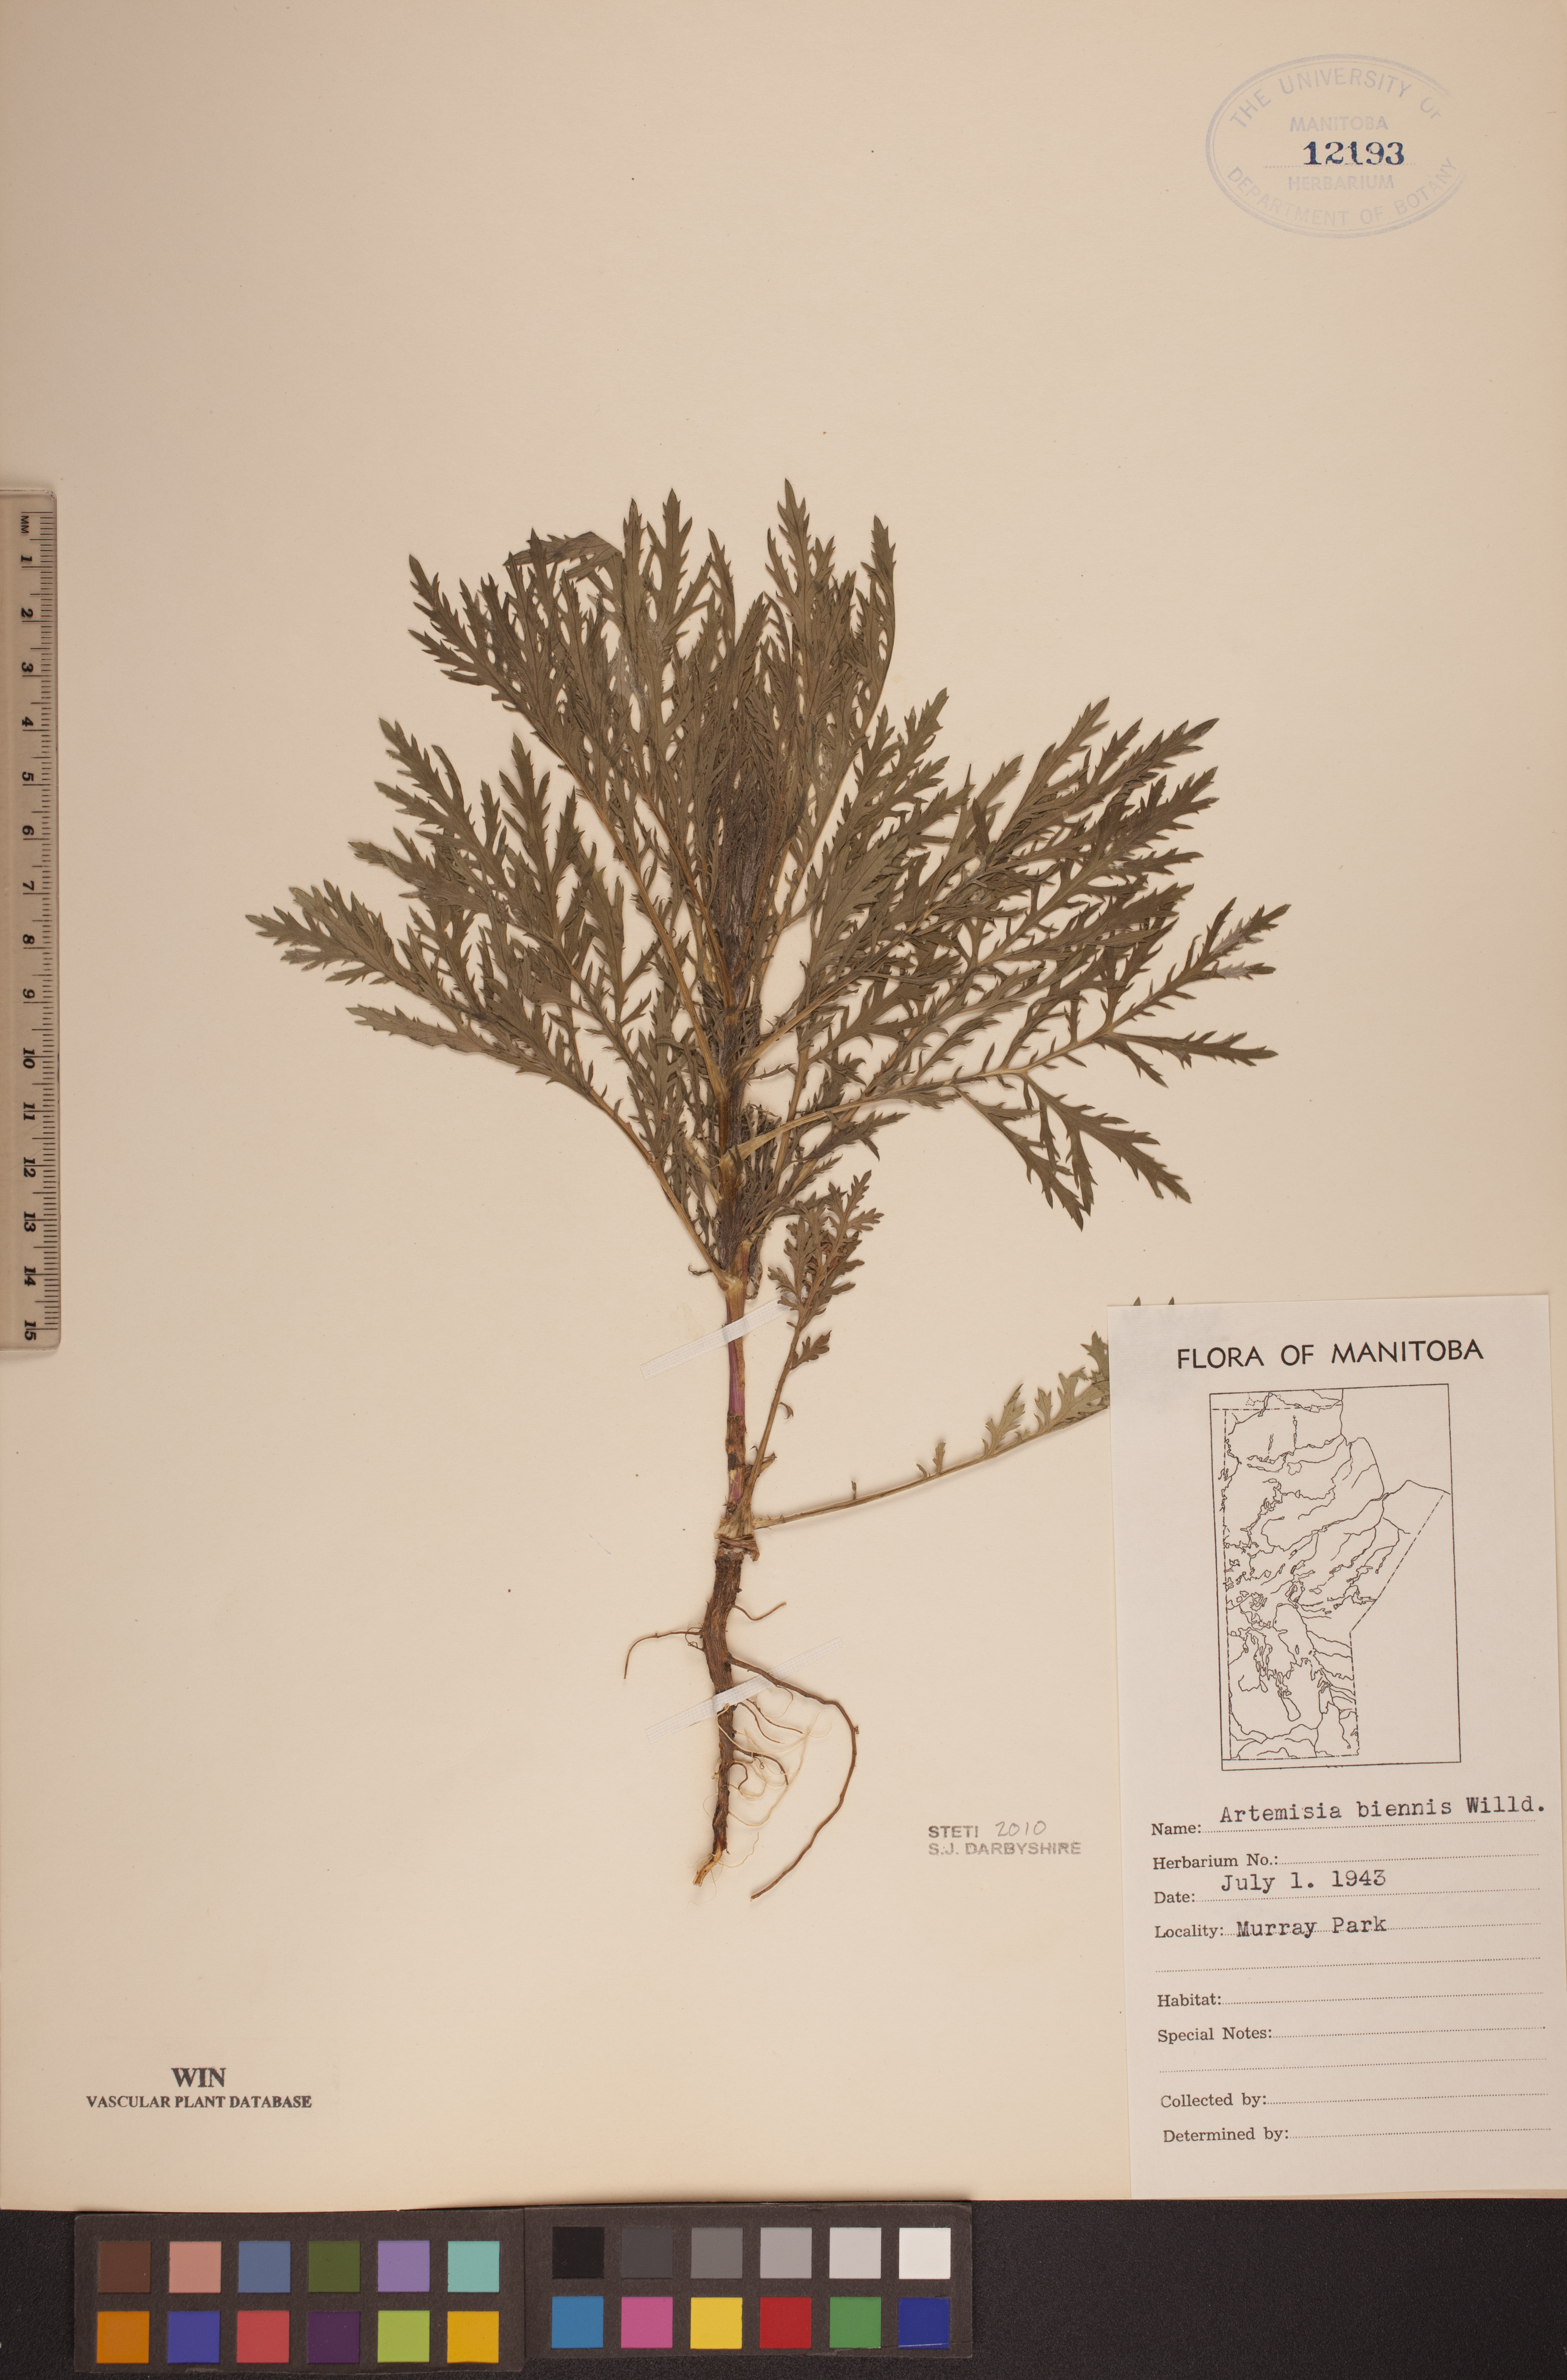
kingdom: Plantae
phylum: Tracheophyta
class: Magnoliopsida
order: Asterales
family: Asteraceae
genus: Artemisia
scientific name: Artemisia biennis
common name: Biennial wormwood
